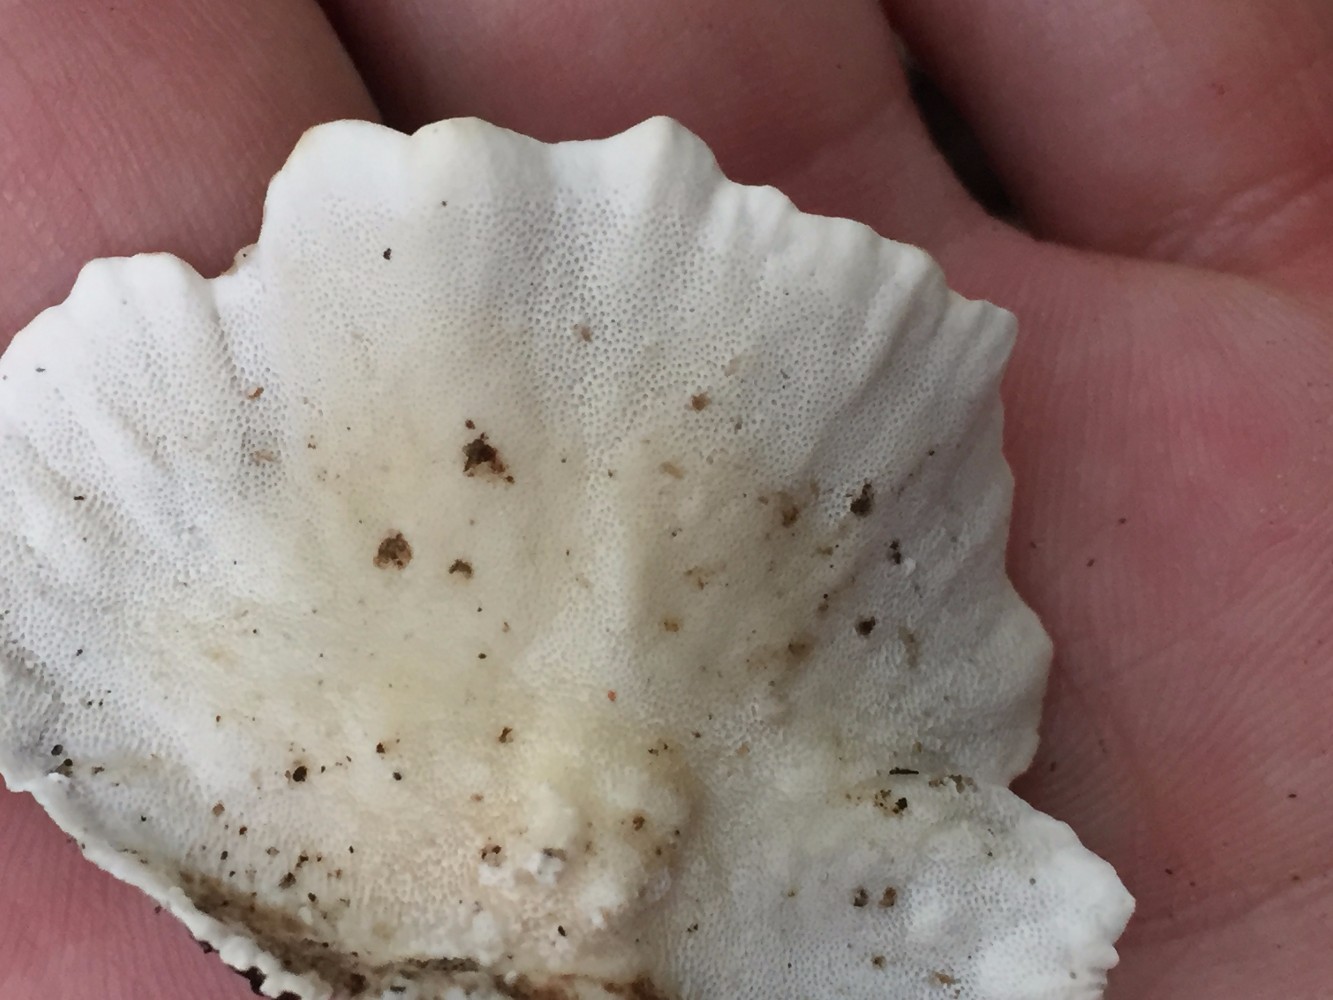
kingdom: Fungi
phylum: Basidiomycota
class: Agaricomycetes
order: Polyporales
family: Polyporaceae
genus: Trametes
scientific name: Trametes versicolor
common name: broget læderporesvamp
